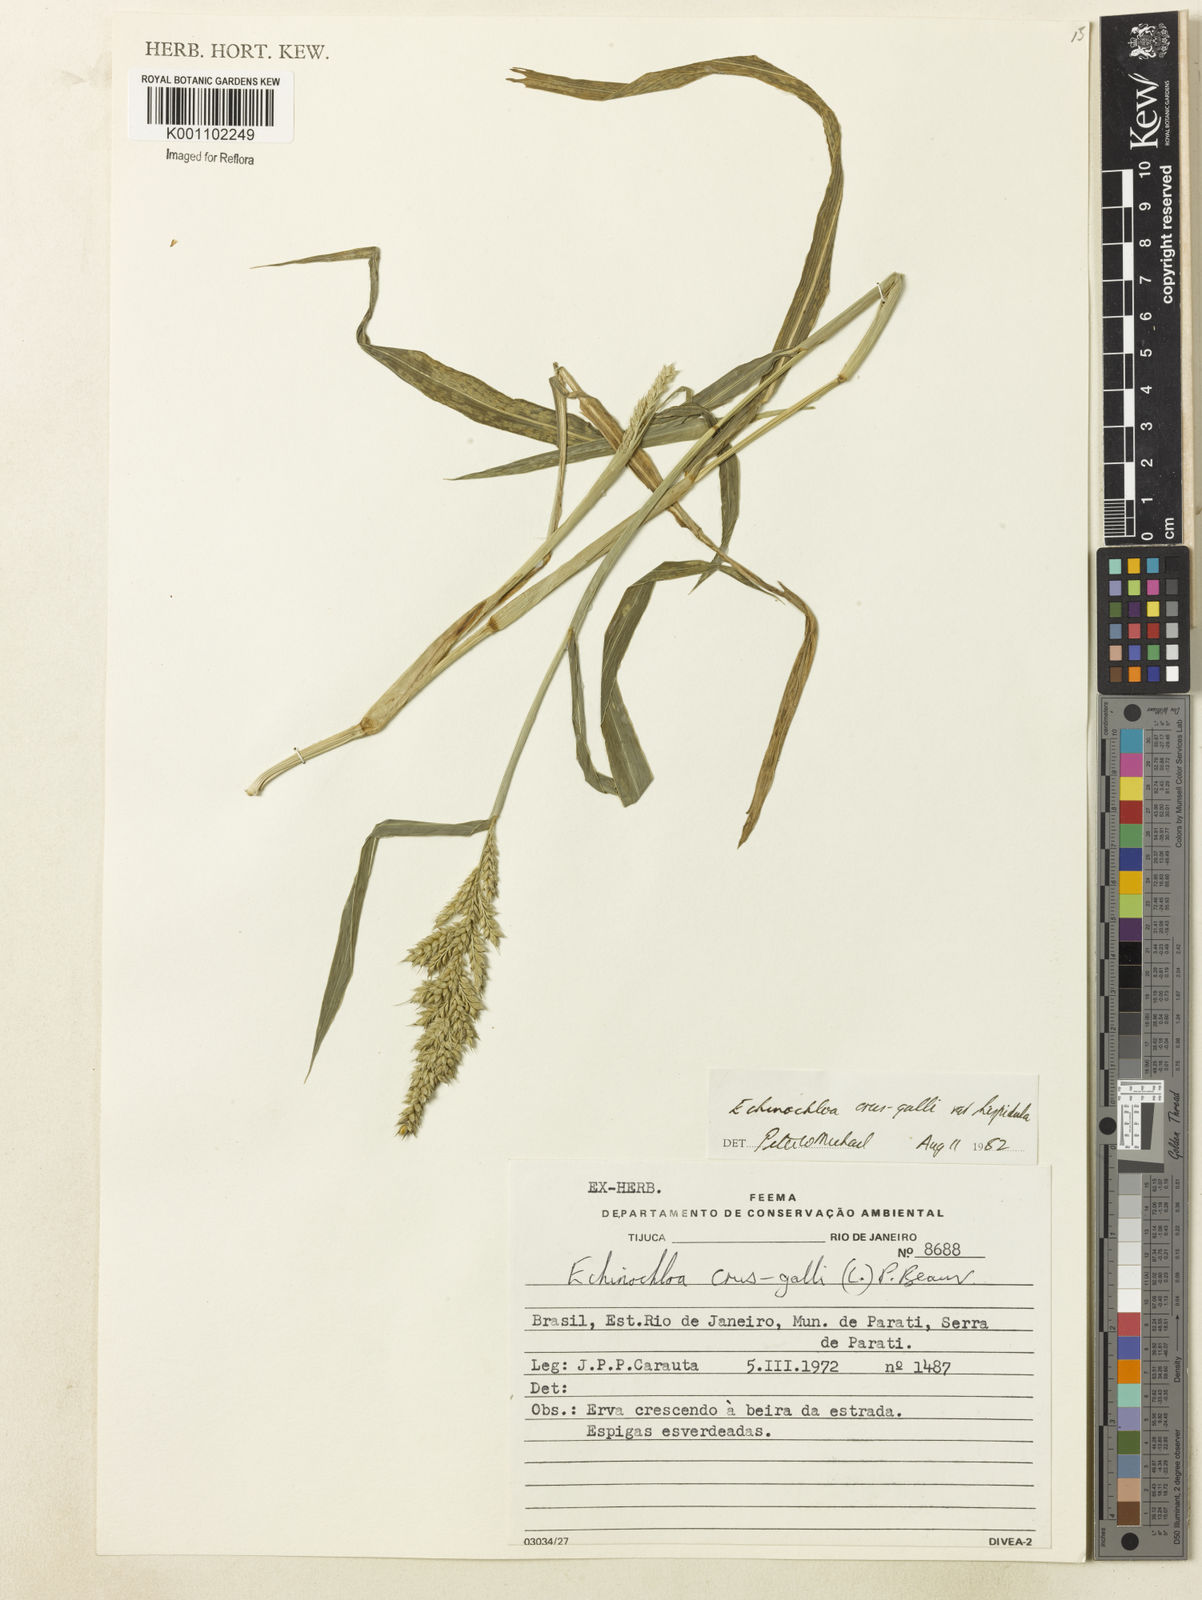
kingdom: Plantae
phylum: Tracheophyta
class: Liliopsida
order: Poales
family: Poaceae
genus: Echinochloa
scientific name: Echinochloa crus-galli
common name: Cockspur
